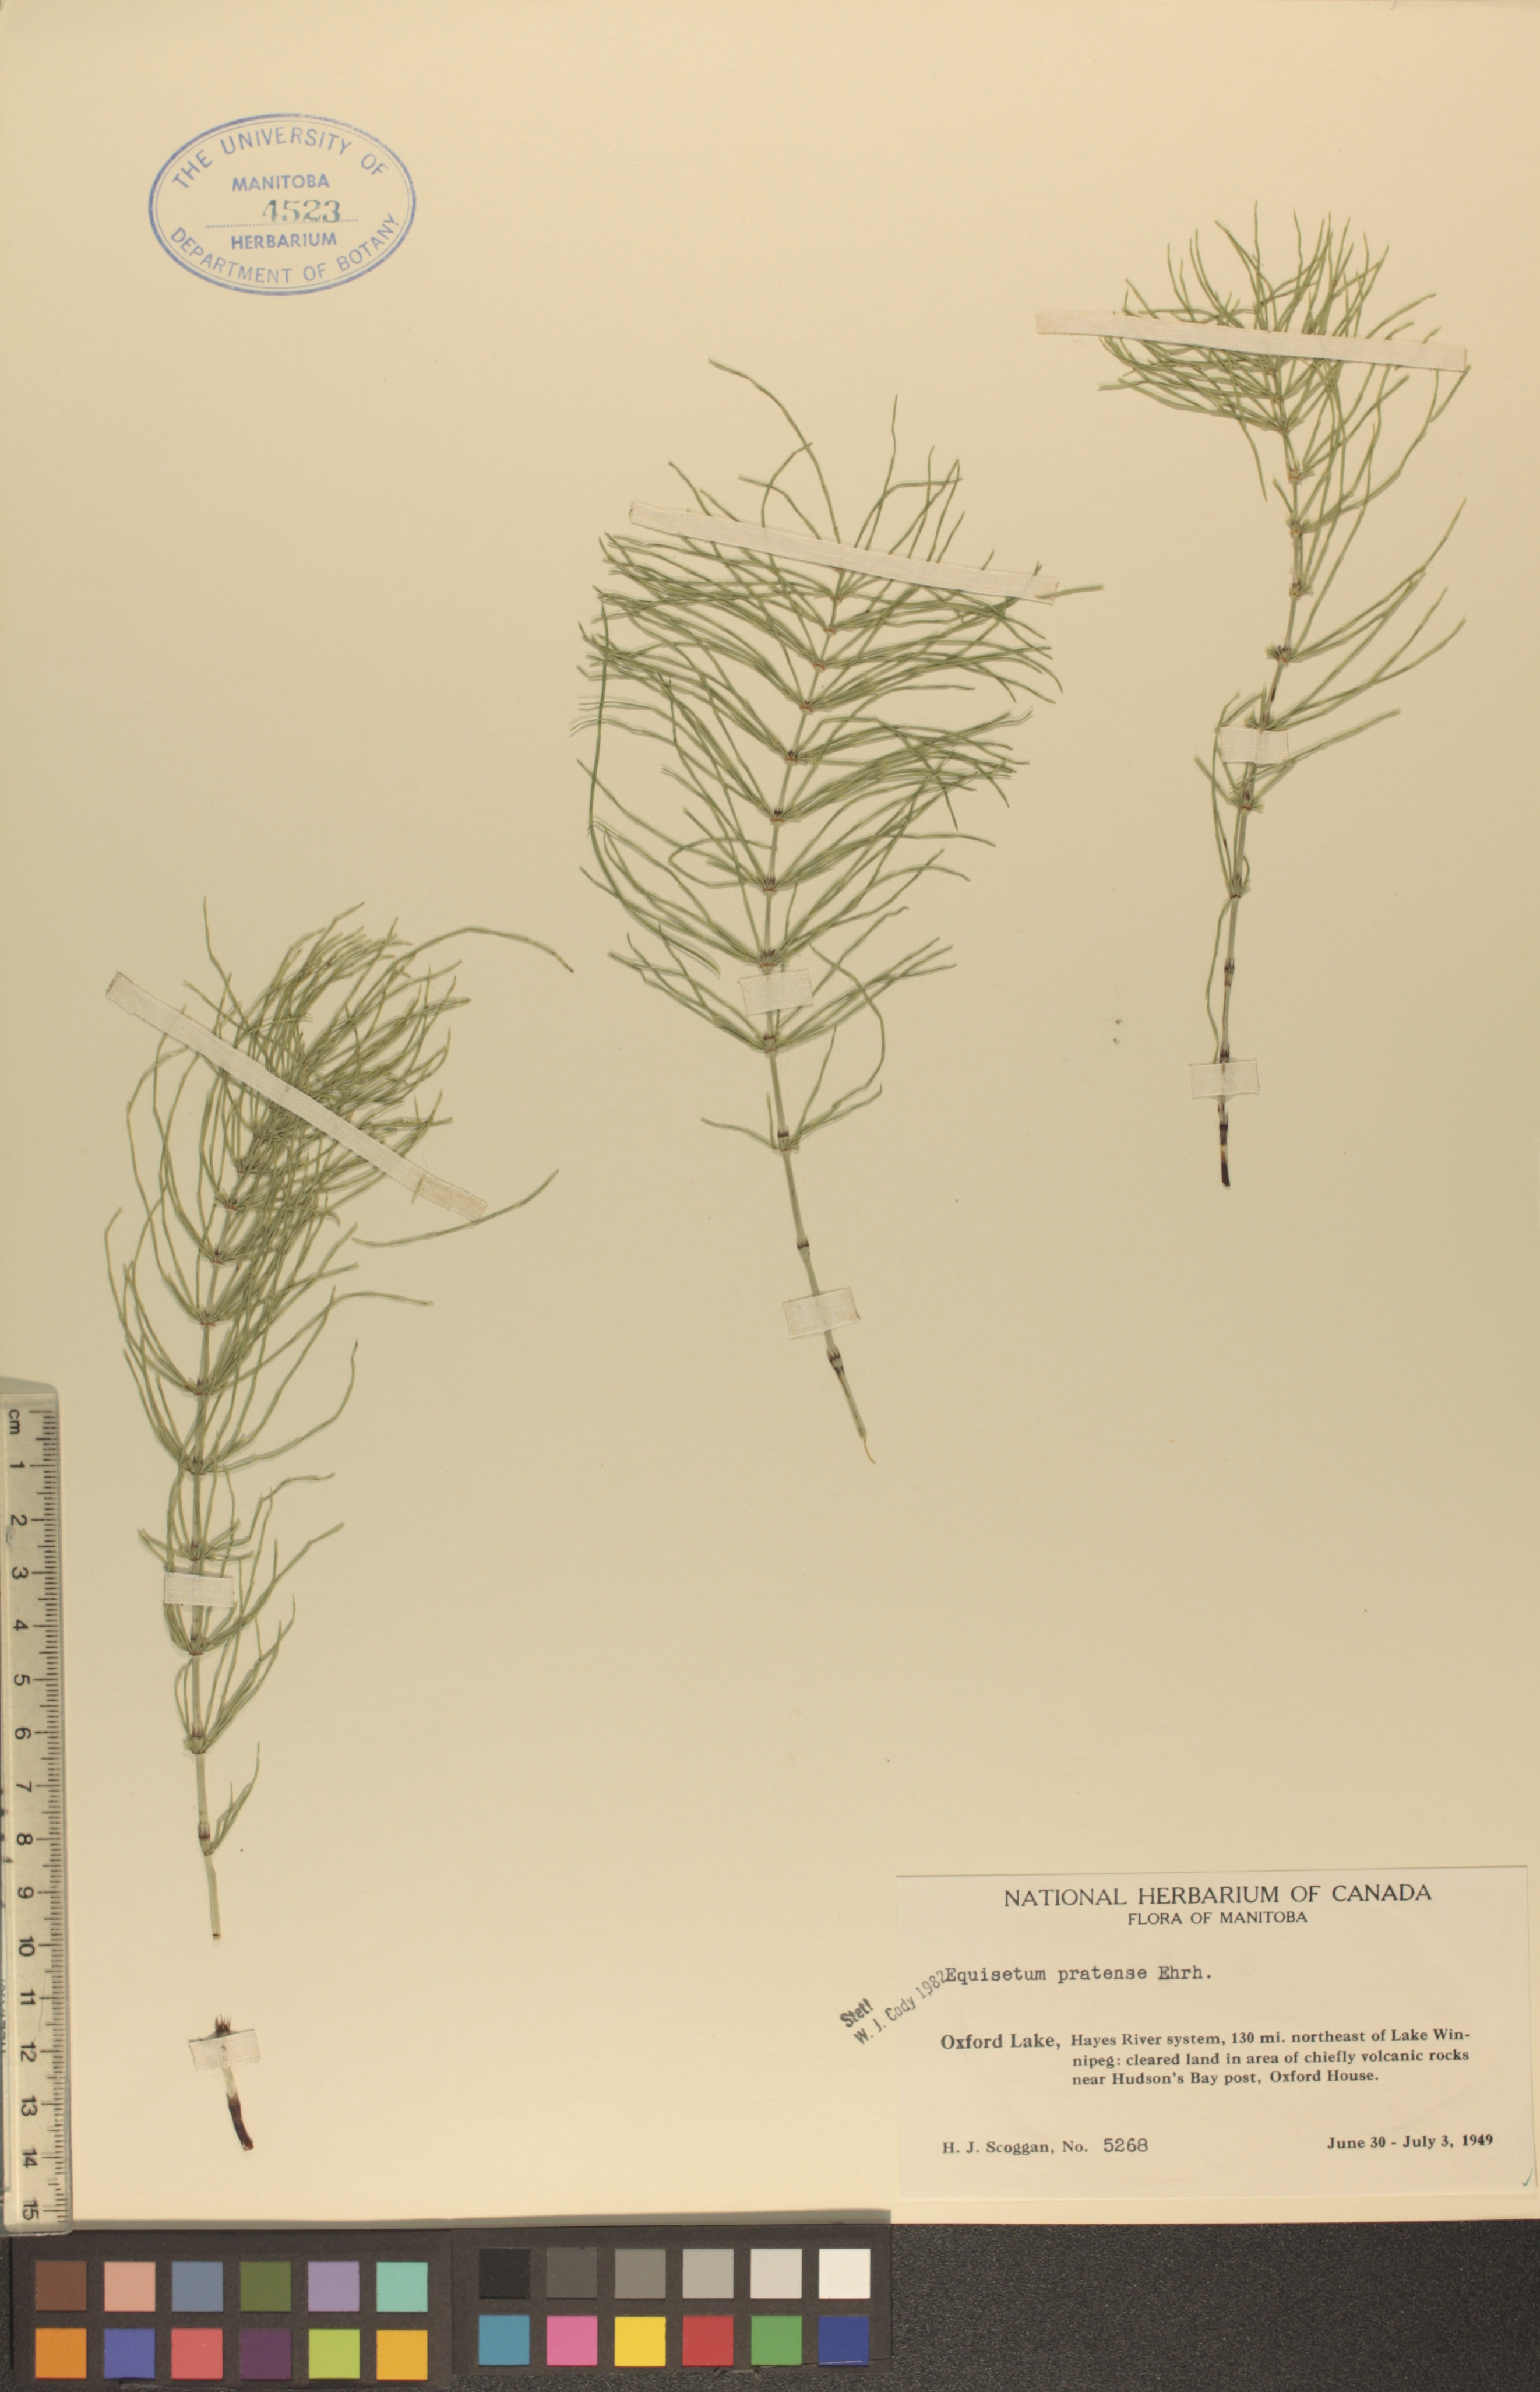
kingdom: Plantae
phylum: Tracheophyta
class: Polypodiopsida
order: Equisetales
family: Equisetaceae
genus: Equisetum
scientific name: Equisetum pratense
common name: Meadow horsetail
